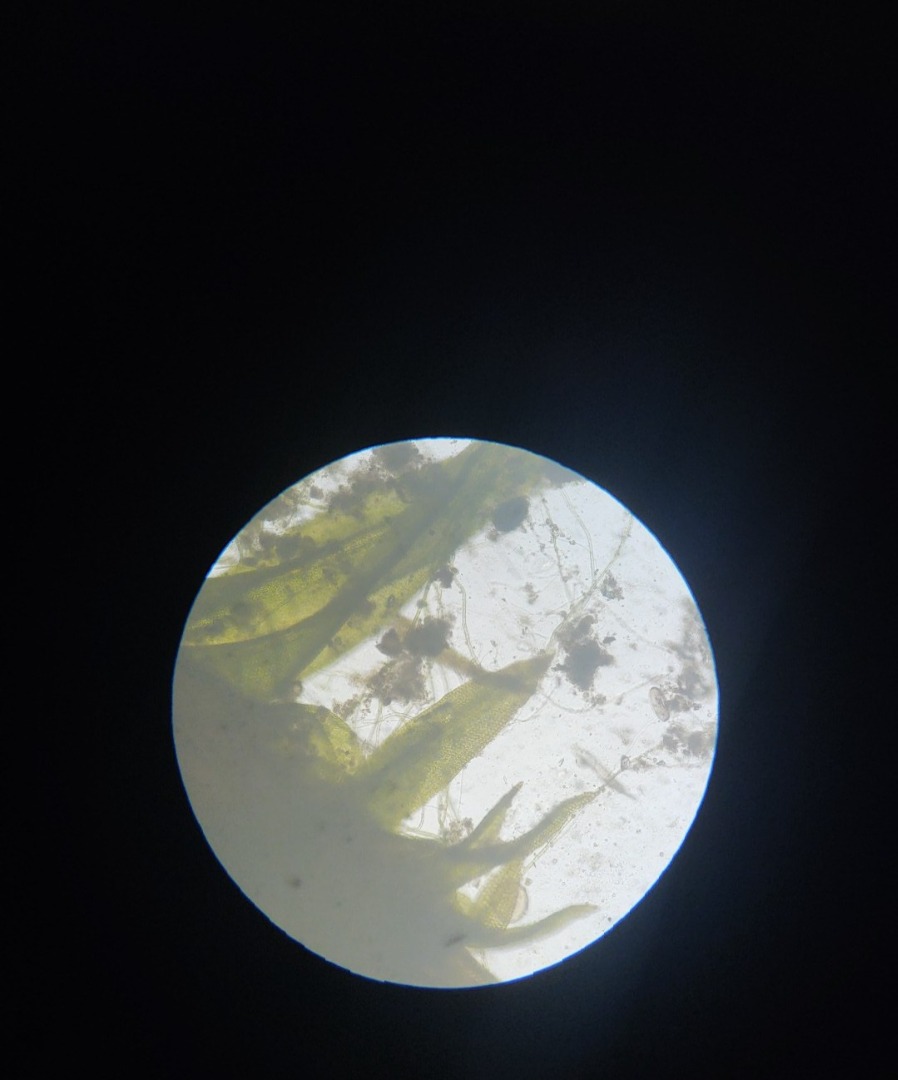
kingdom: Plantae
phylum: Bryophyta
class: Bryopsida
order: Orthotrichales
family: Orthotrichaceae
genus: Orthotrichum
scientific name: Orthotrichum anomalum
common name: Mørk furehætte
